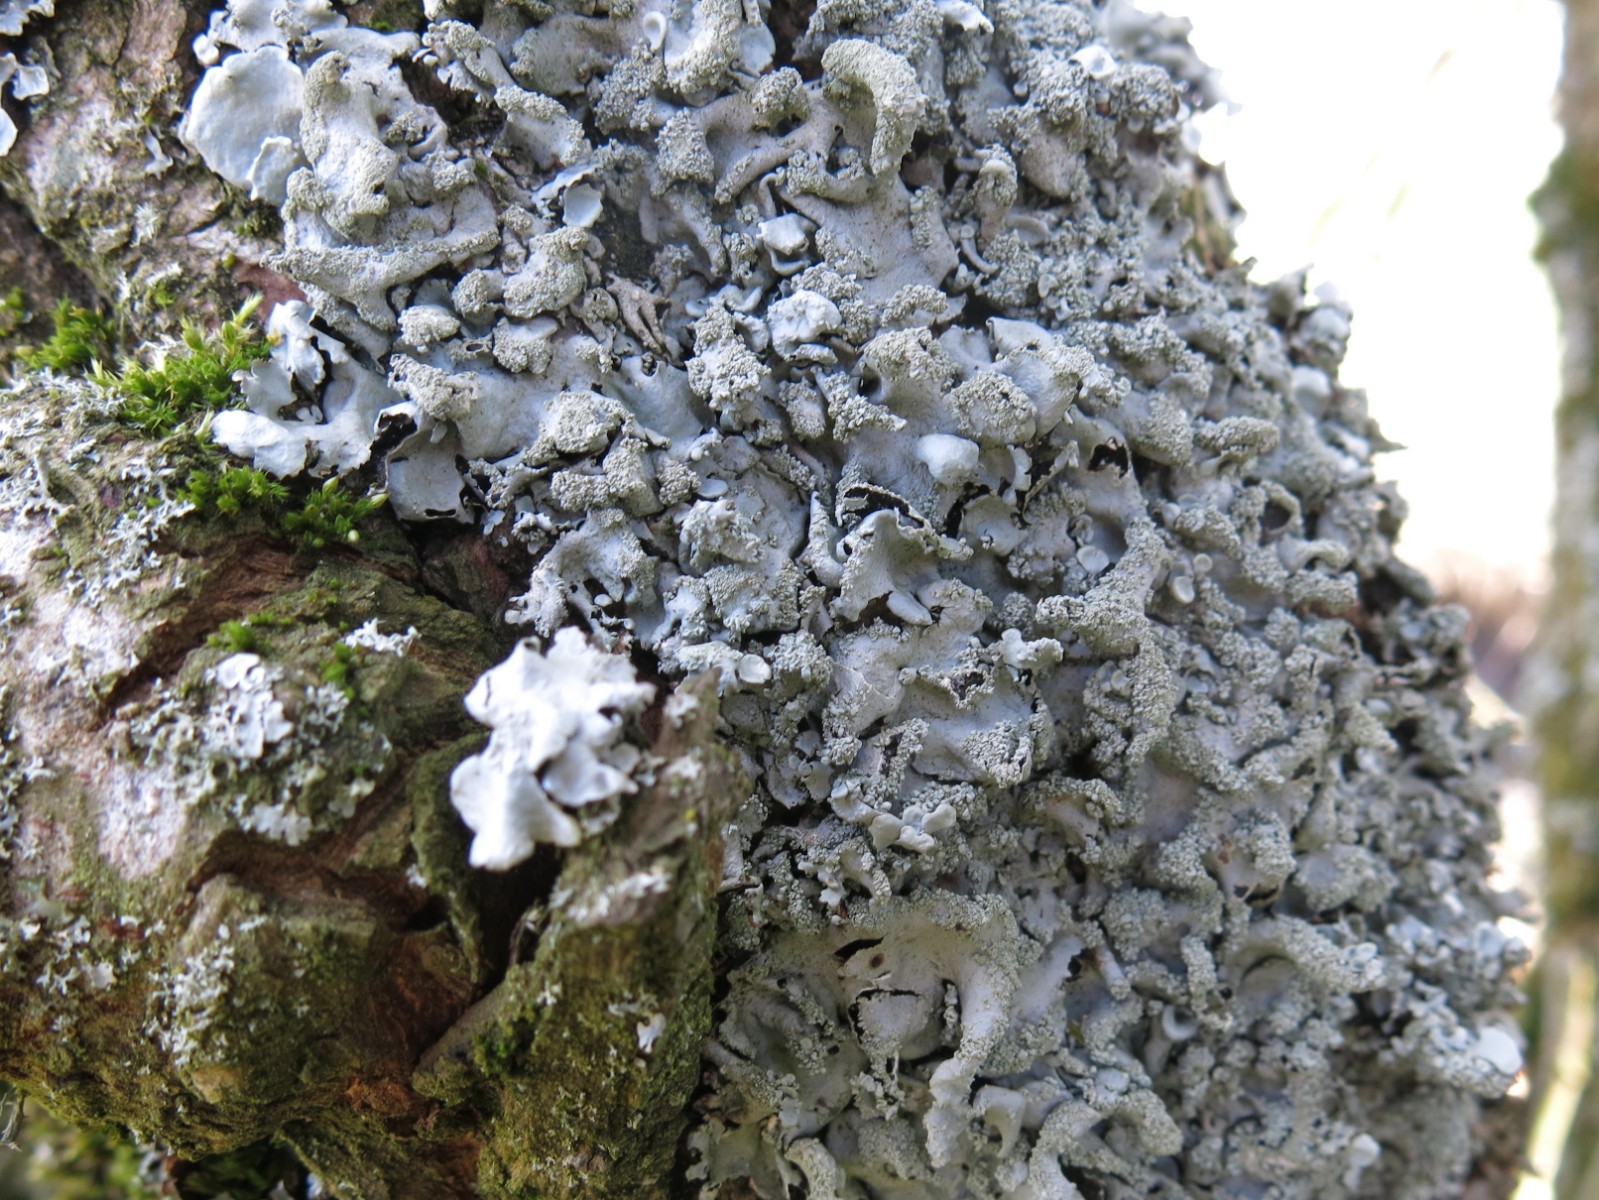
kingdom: Fungi
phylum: Ascomycota
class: Lecanoromycetes
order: Lecanorales
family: Parmeliaceae
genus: Hypotrachyna
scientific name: Hypotrachyna afrorevoluta
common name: kyst-skållav
